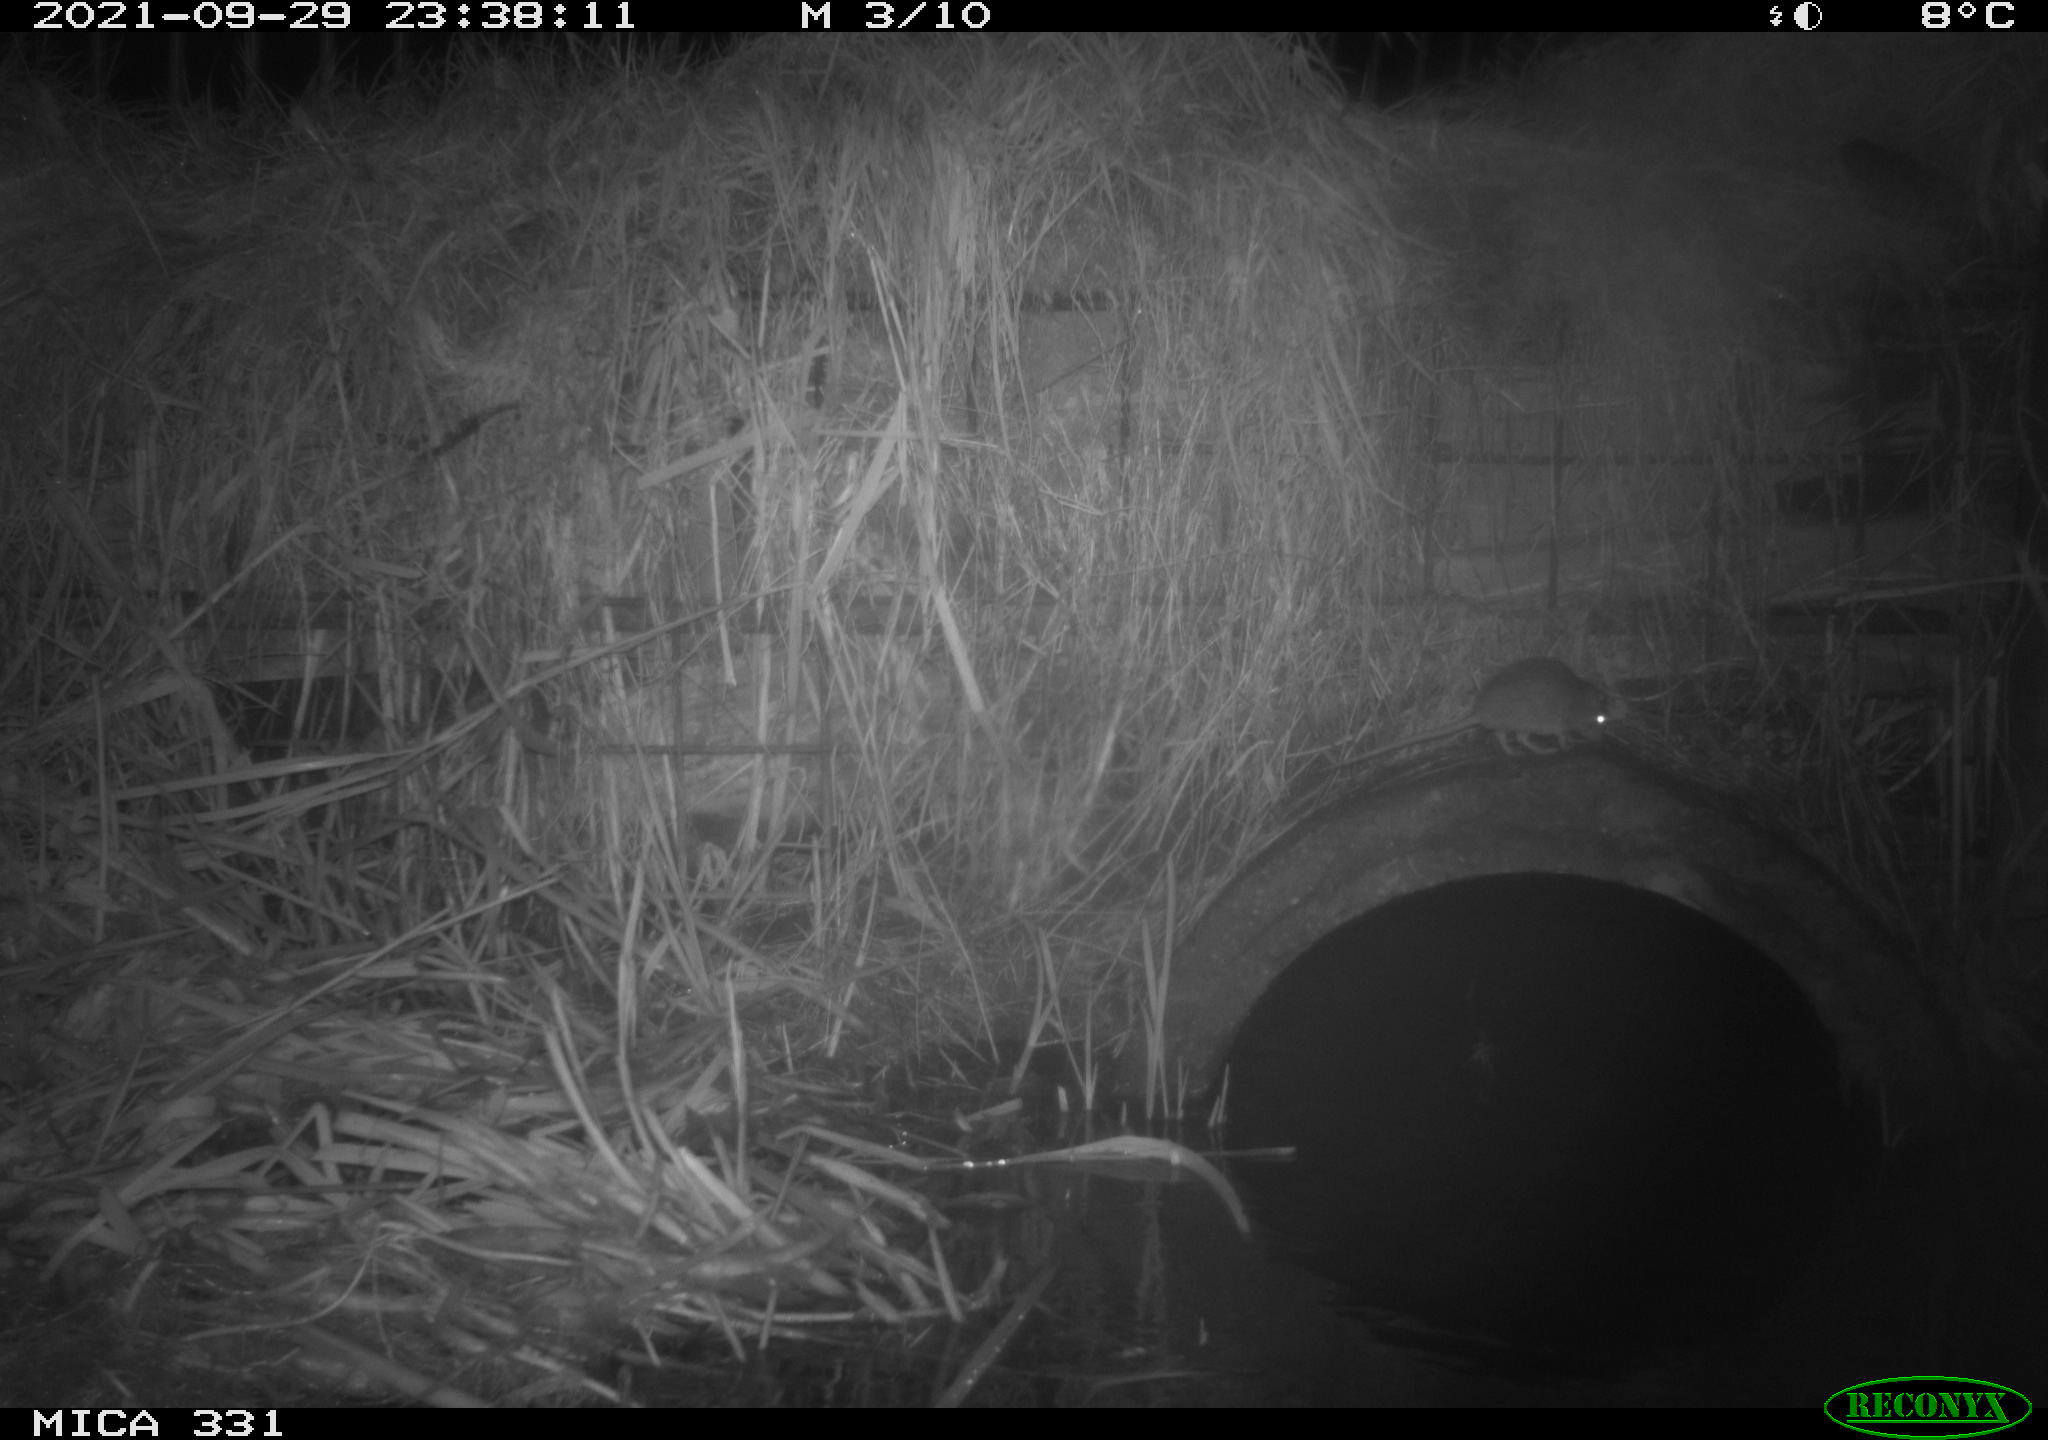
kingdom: Animalia
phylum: Chordata
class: Mammalia
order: Rodentia
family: Muridae
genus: Rattus
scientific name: Rattus norvegicus
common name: Brown rat
